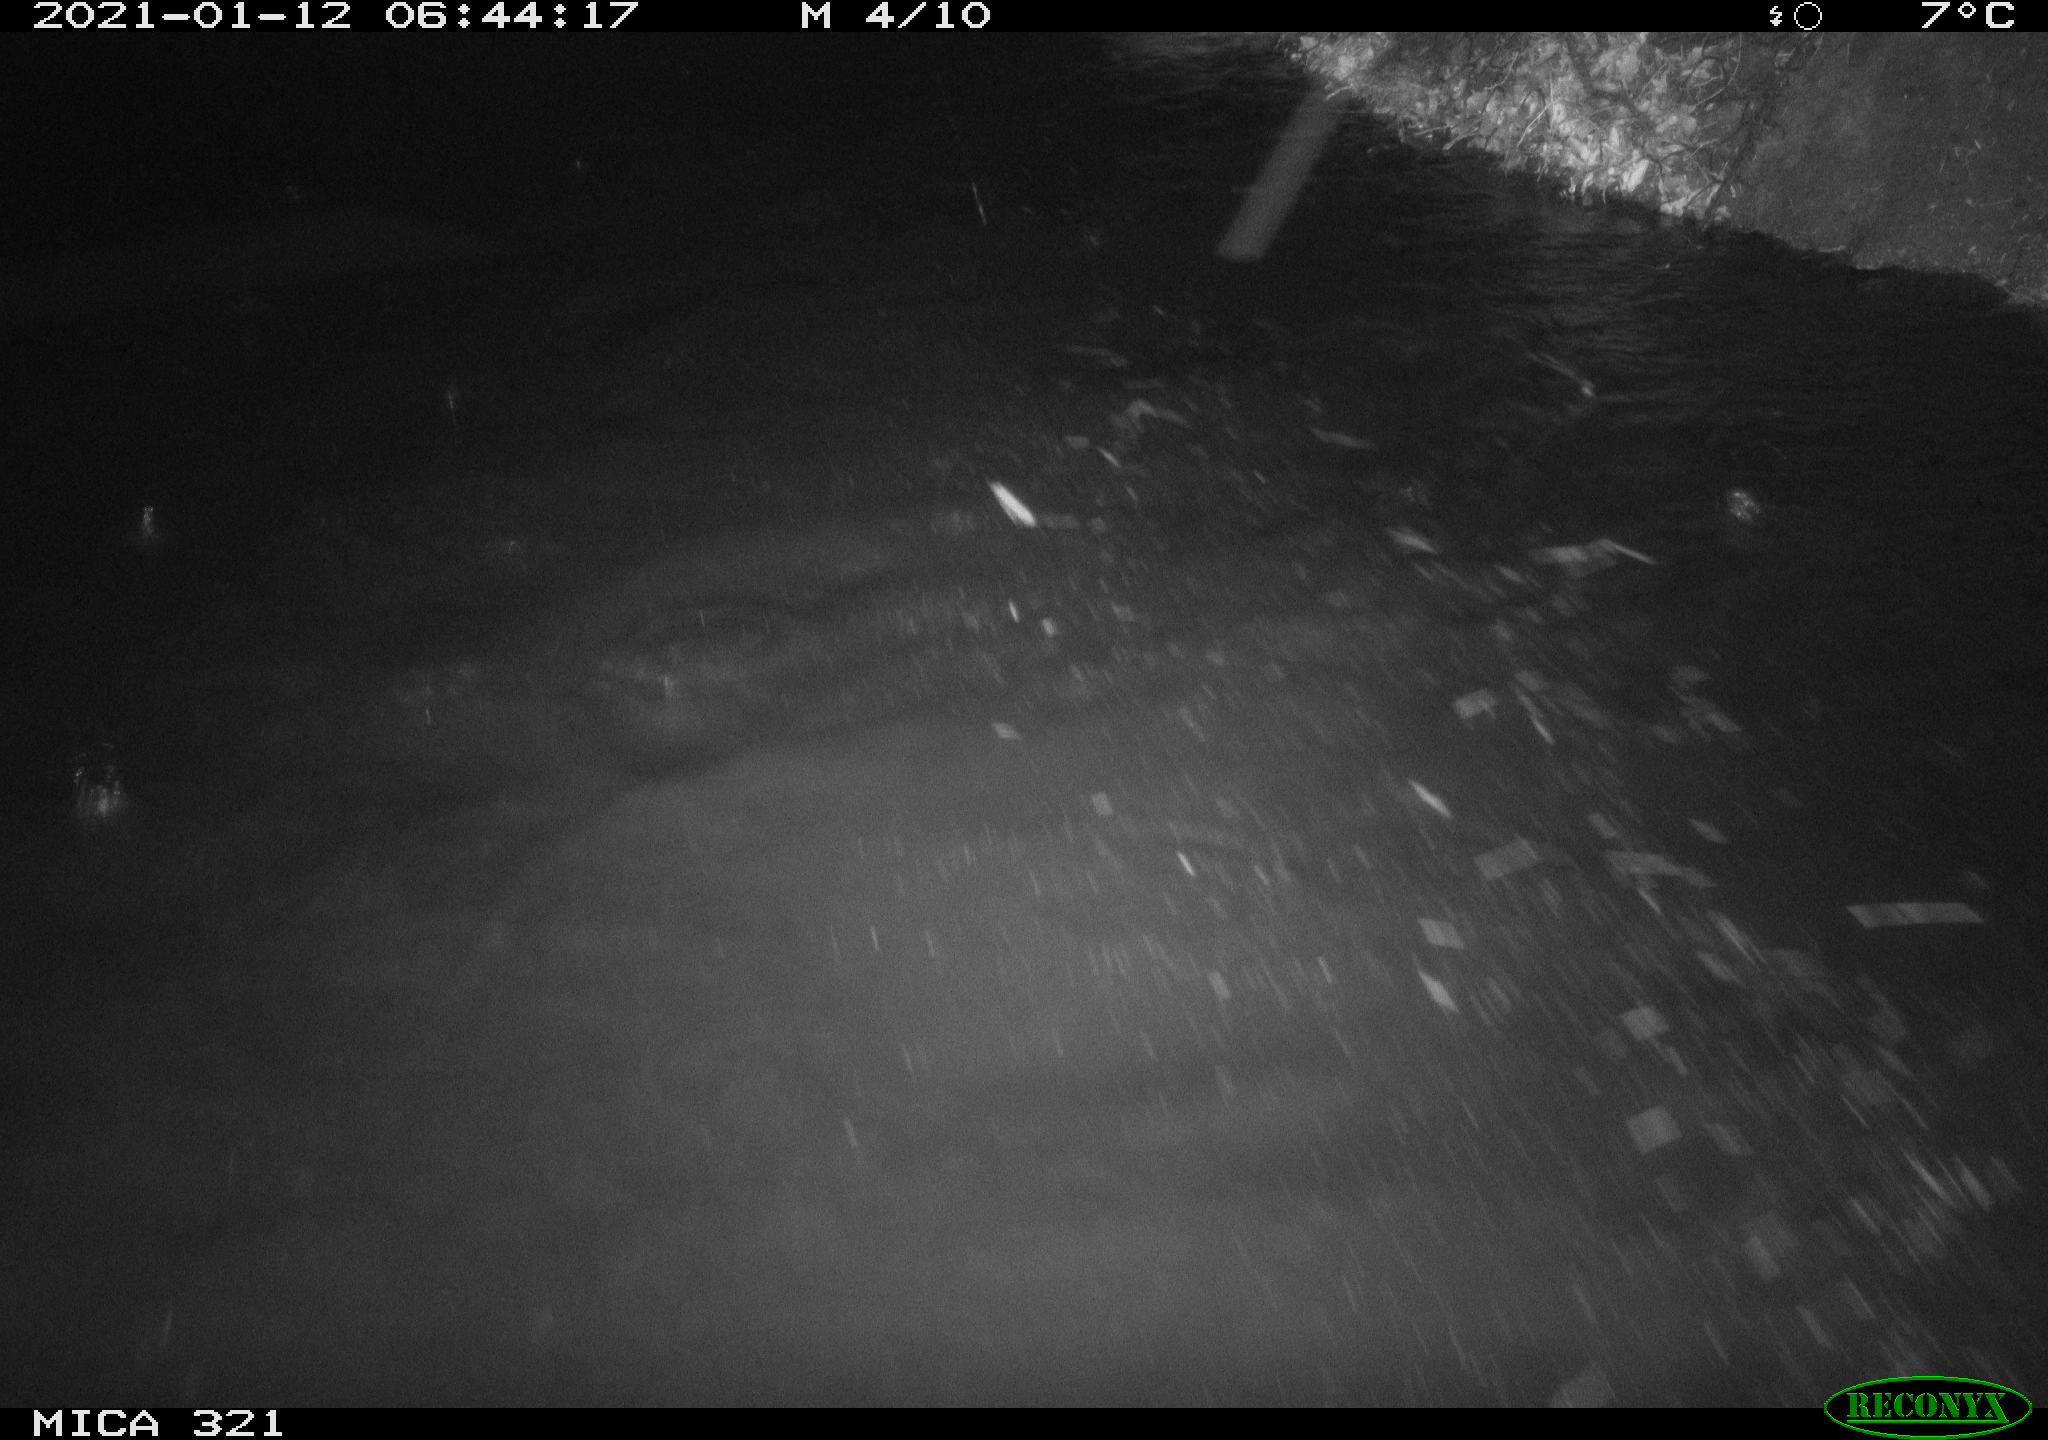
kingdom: Animalia
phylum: Chordata
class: Aves
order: Anseriformes
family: Anatidae
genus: Anas
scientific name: Anas platyrhynchos
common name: Mallard
